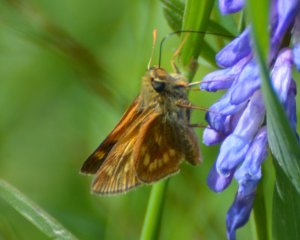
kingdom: Animalia
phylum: Arthropoda
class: Insecta
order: Lepidoptera
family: Hesperiidae
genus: Polites
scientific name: Polites
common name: Long Dash Skipper
